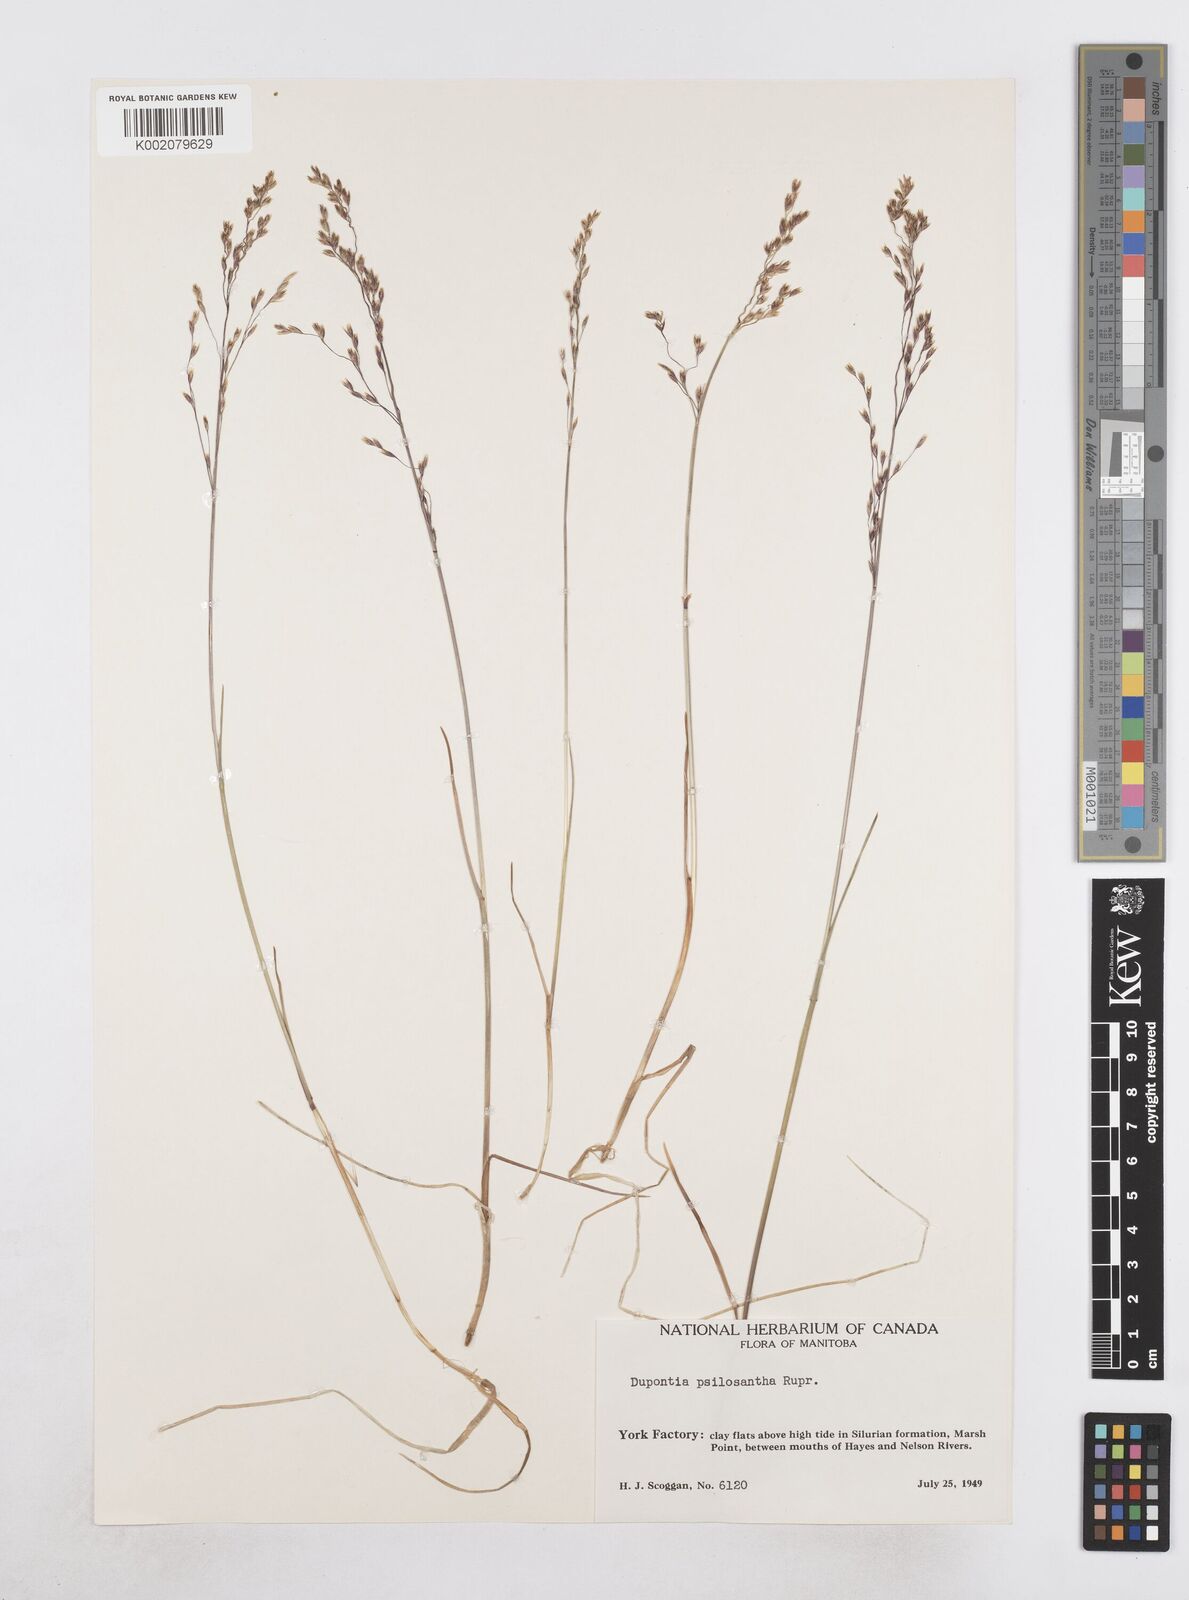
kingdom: Plantae
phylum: Tracheophyta
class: Liliopsida
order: Poales
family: Poaceae
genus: Dupontia
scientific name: Dupontia fisheri
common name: Tundra grass
